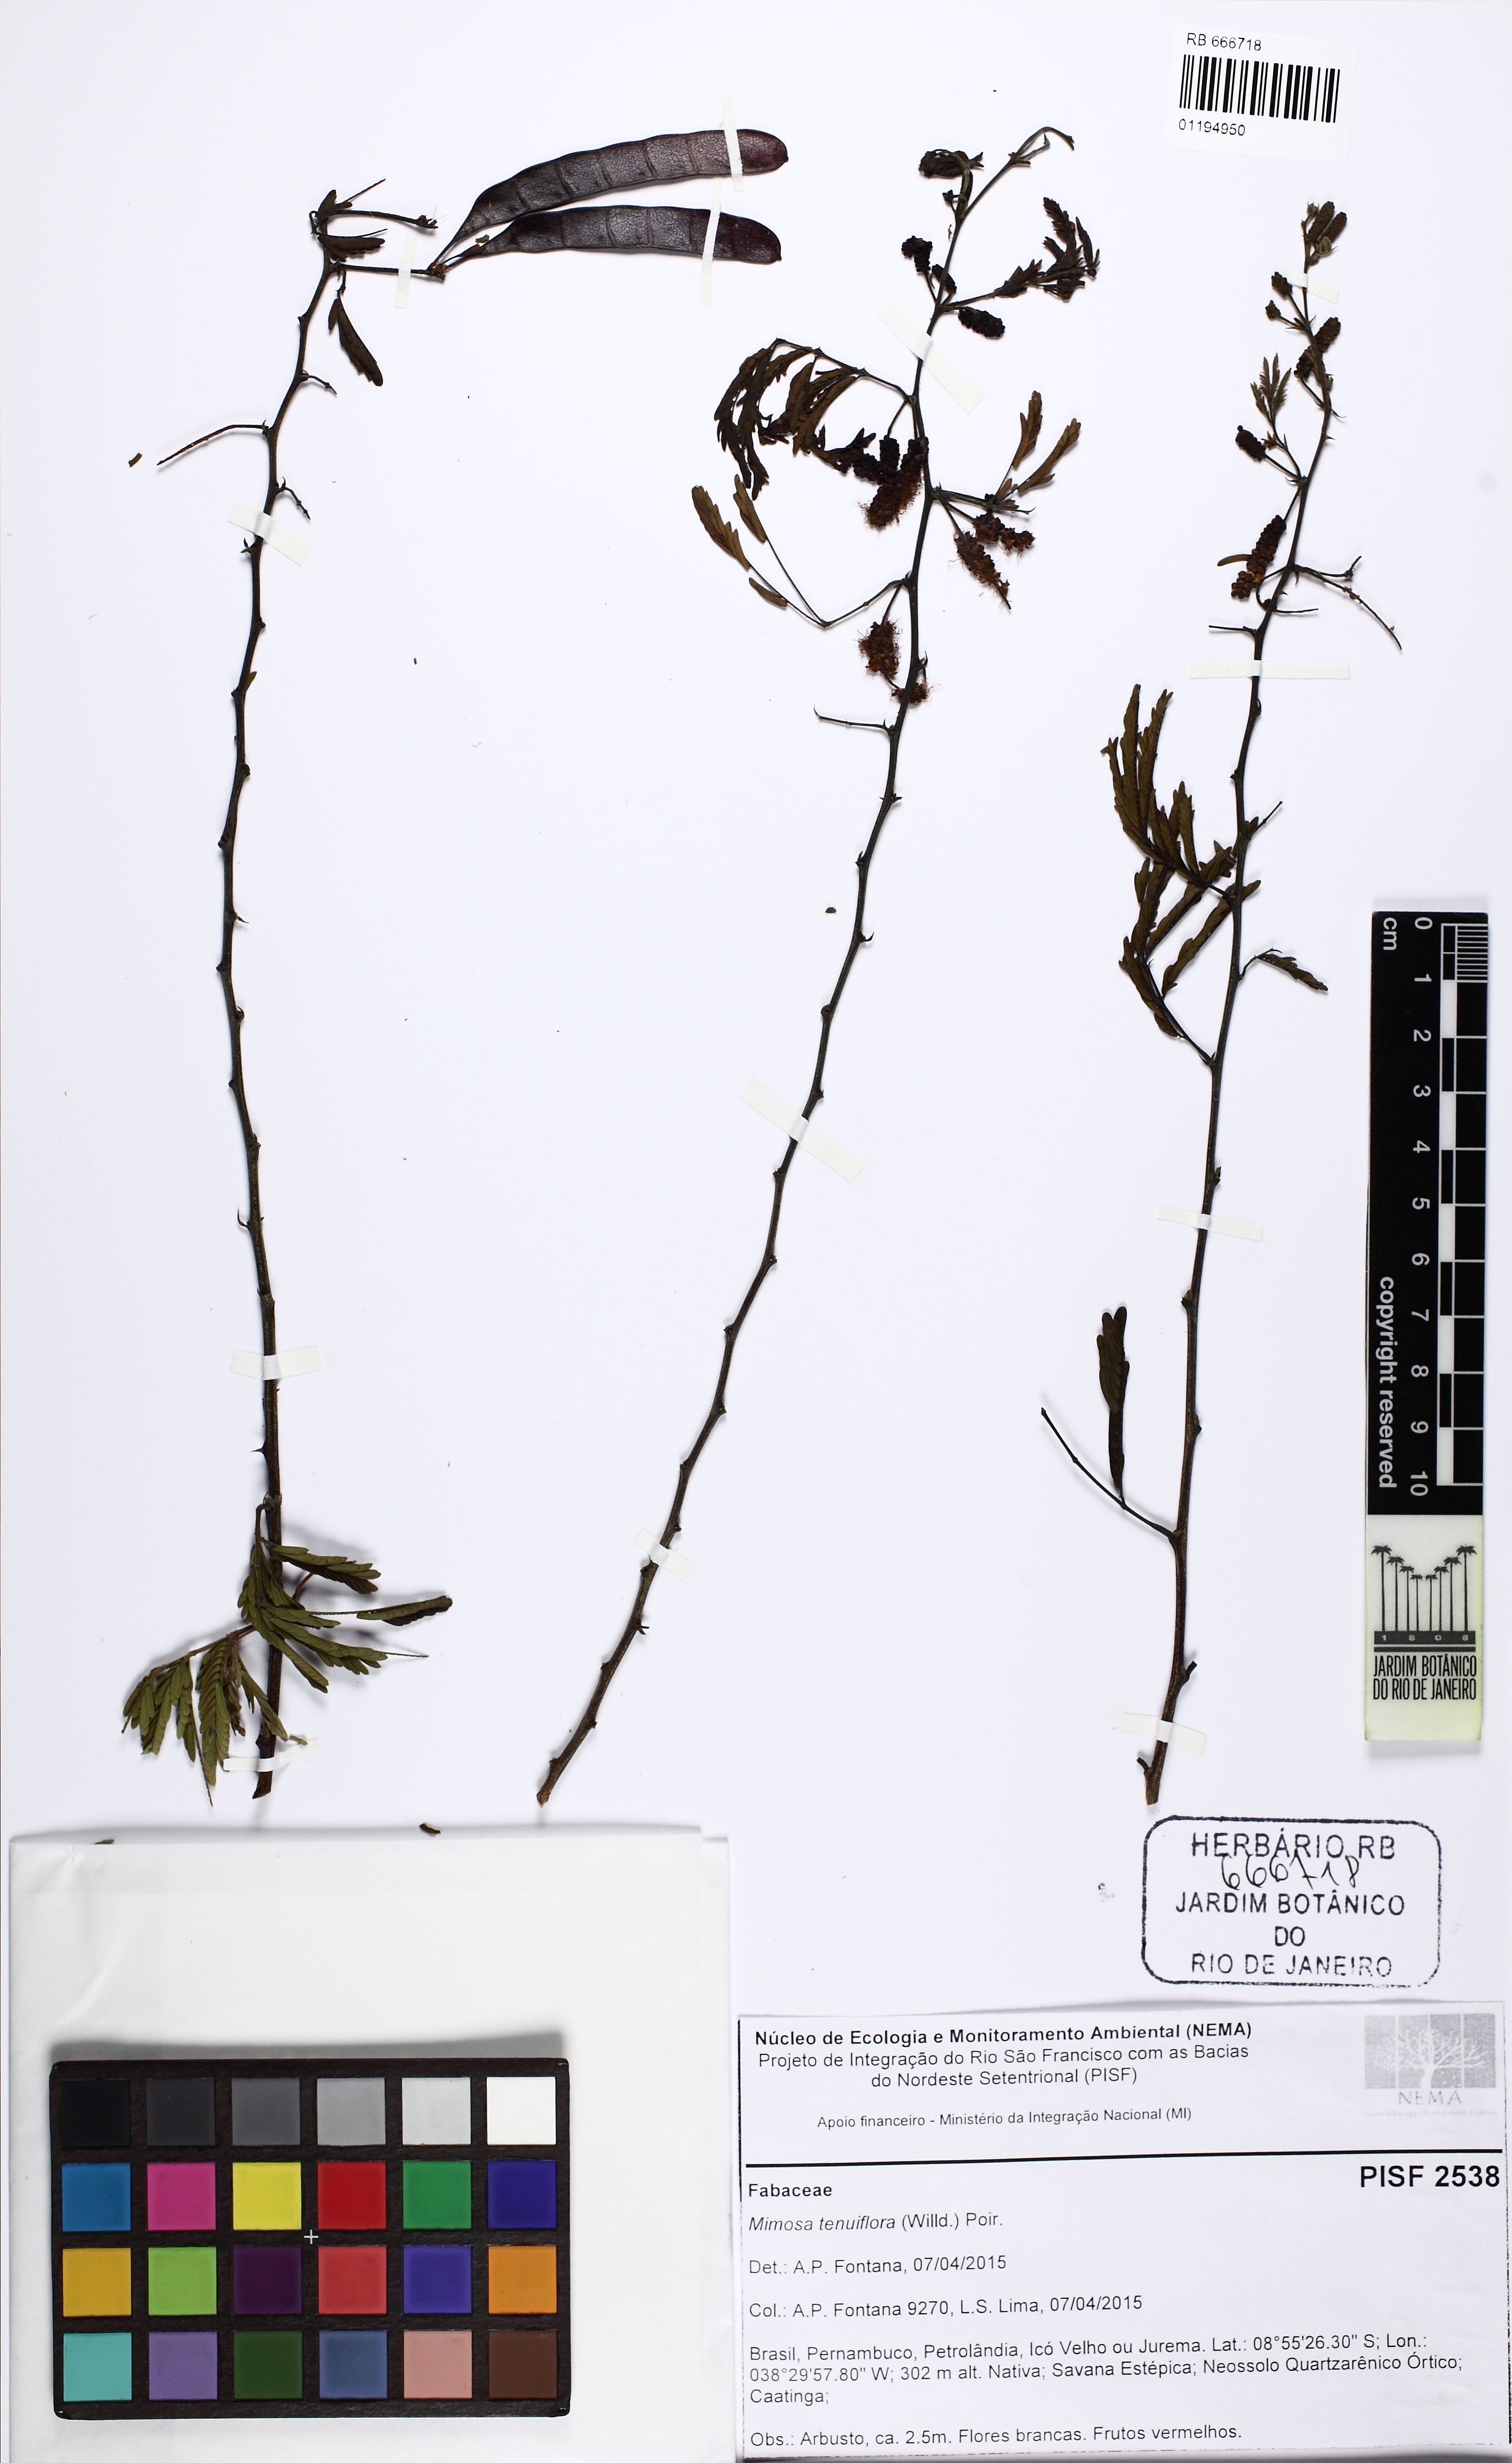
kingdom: Plantae
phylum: Tracheophyta
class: Magnoliopsida
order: Fabales
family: Fabaceae
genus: Mimosa
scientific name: Mimosa tenuiflora
